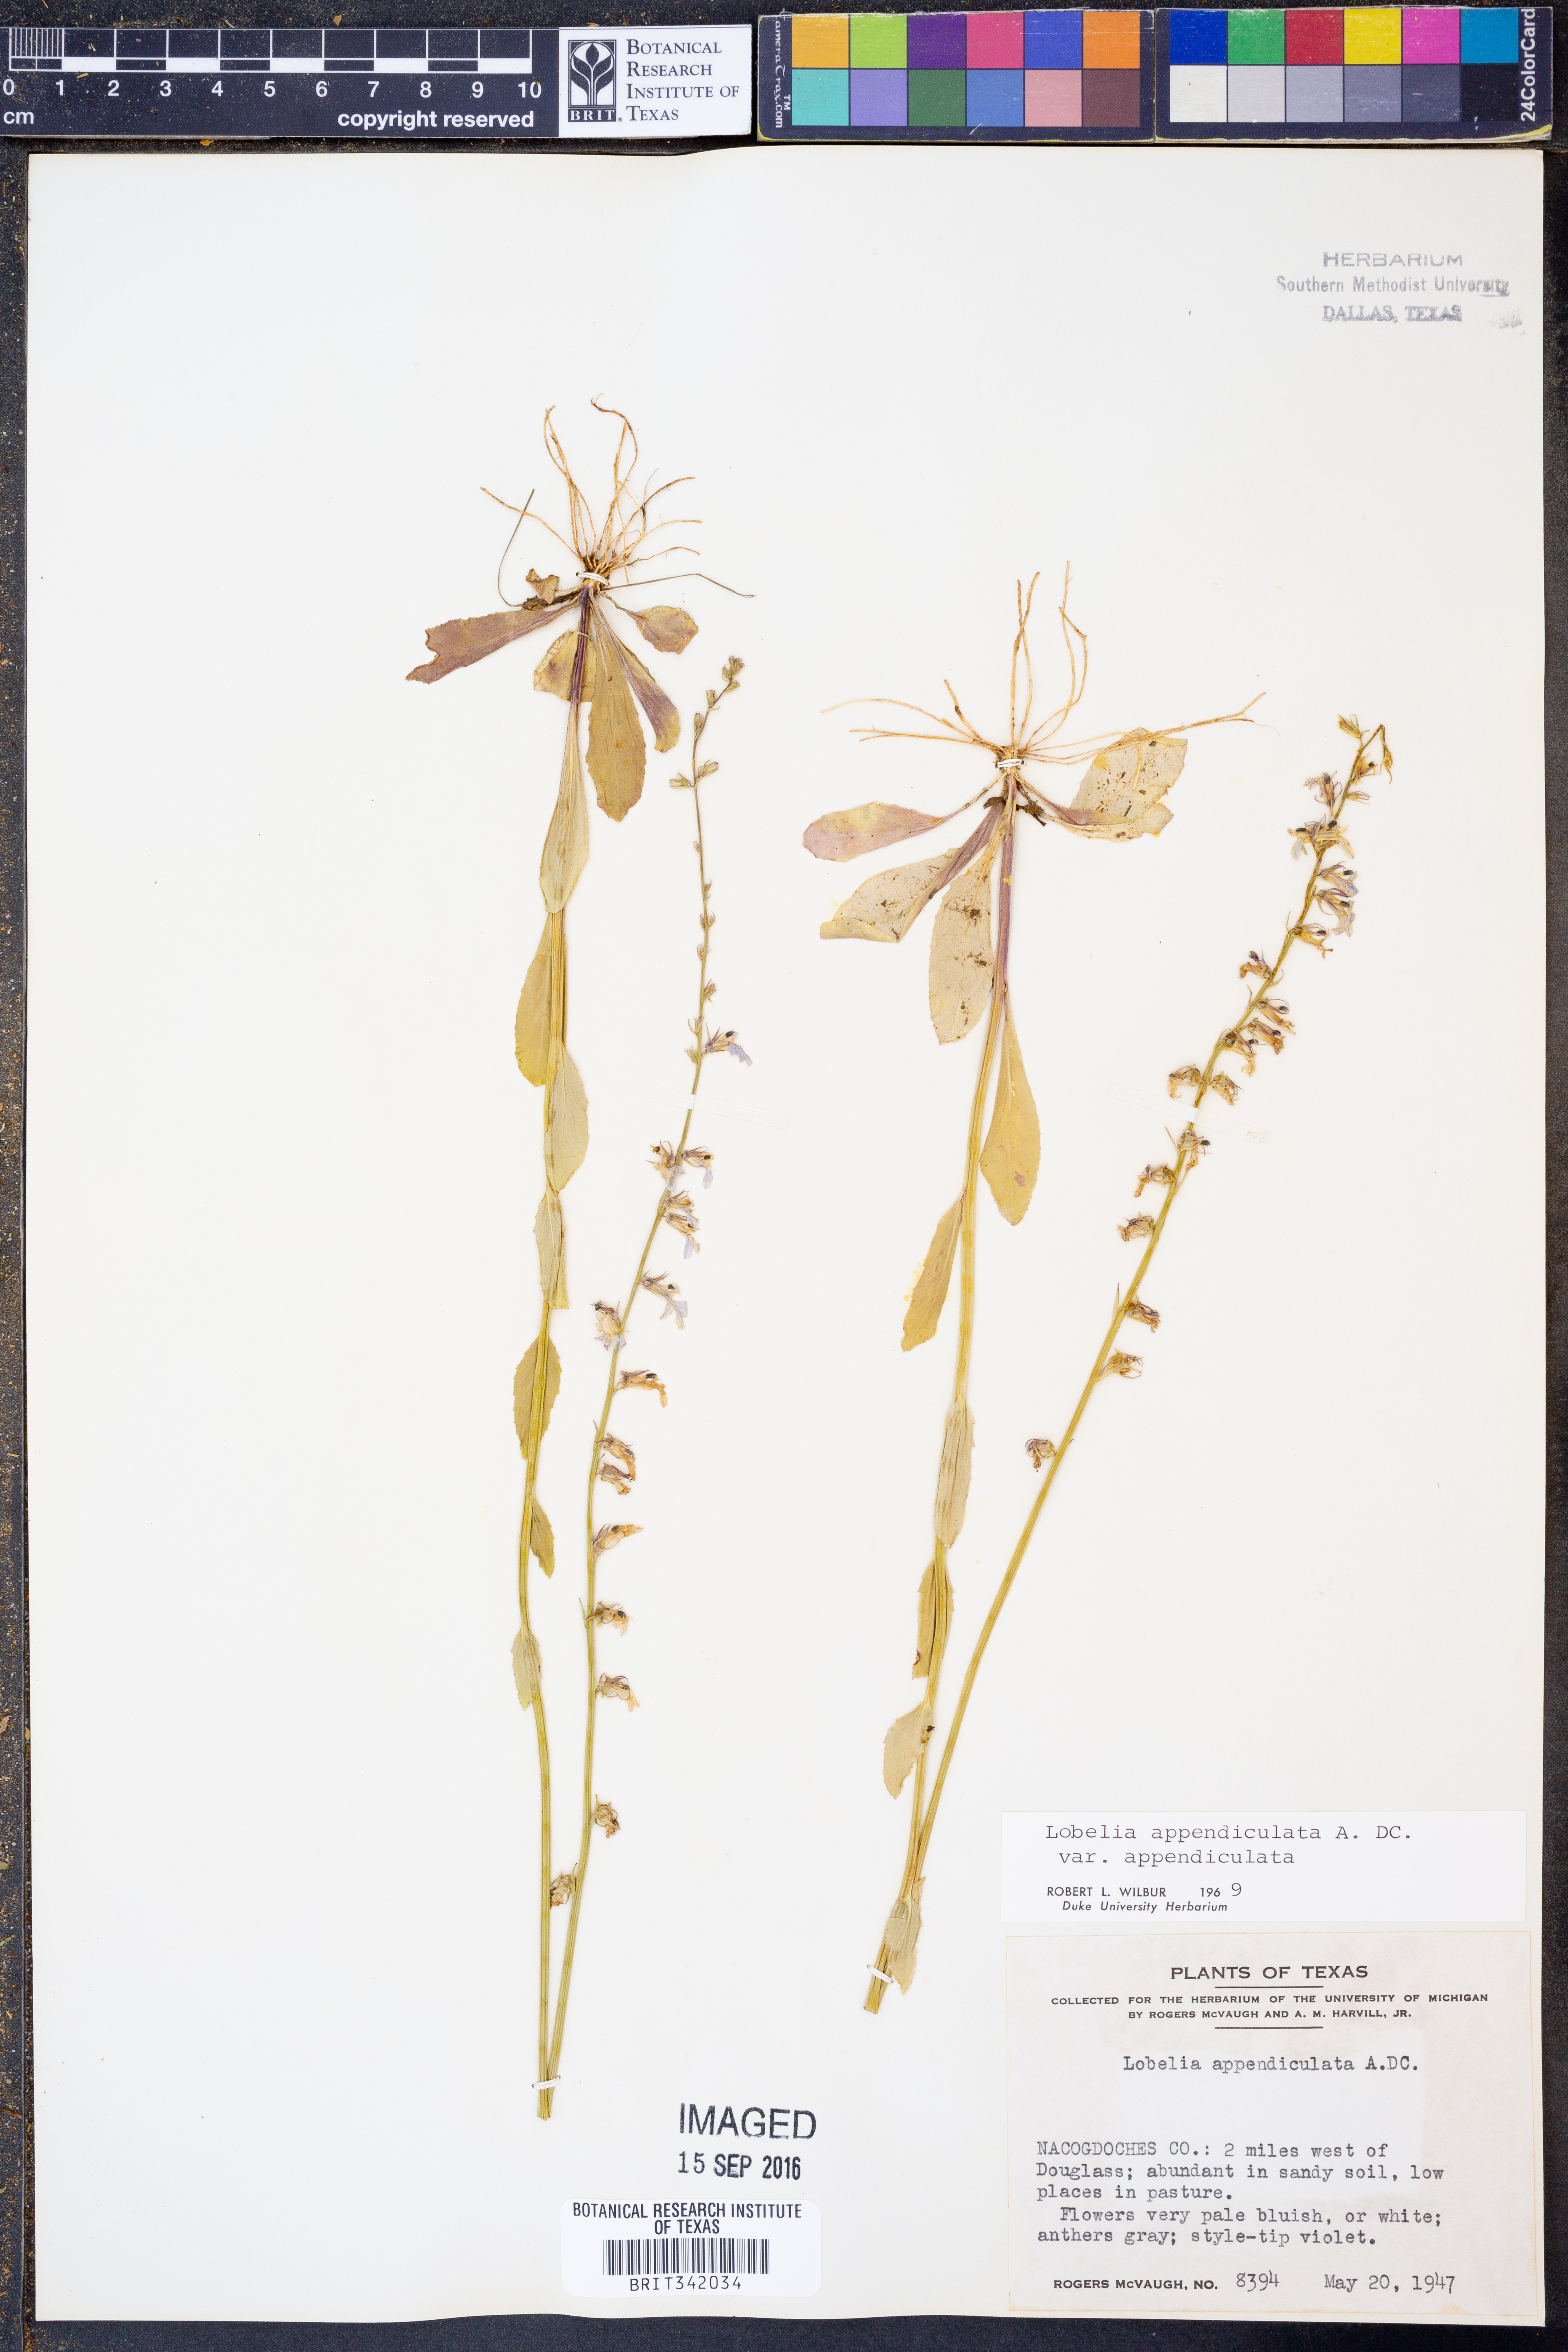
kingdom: Plantae
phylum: Tracheophyta
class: Magnoliopsida
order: Asterales
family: Campanulaceae
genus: Lobelia
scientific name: Lobelia appendiculata
